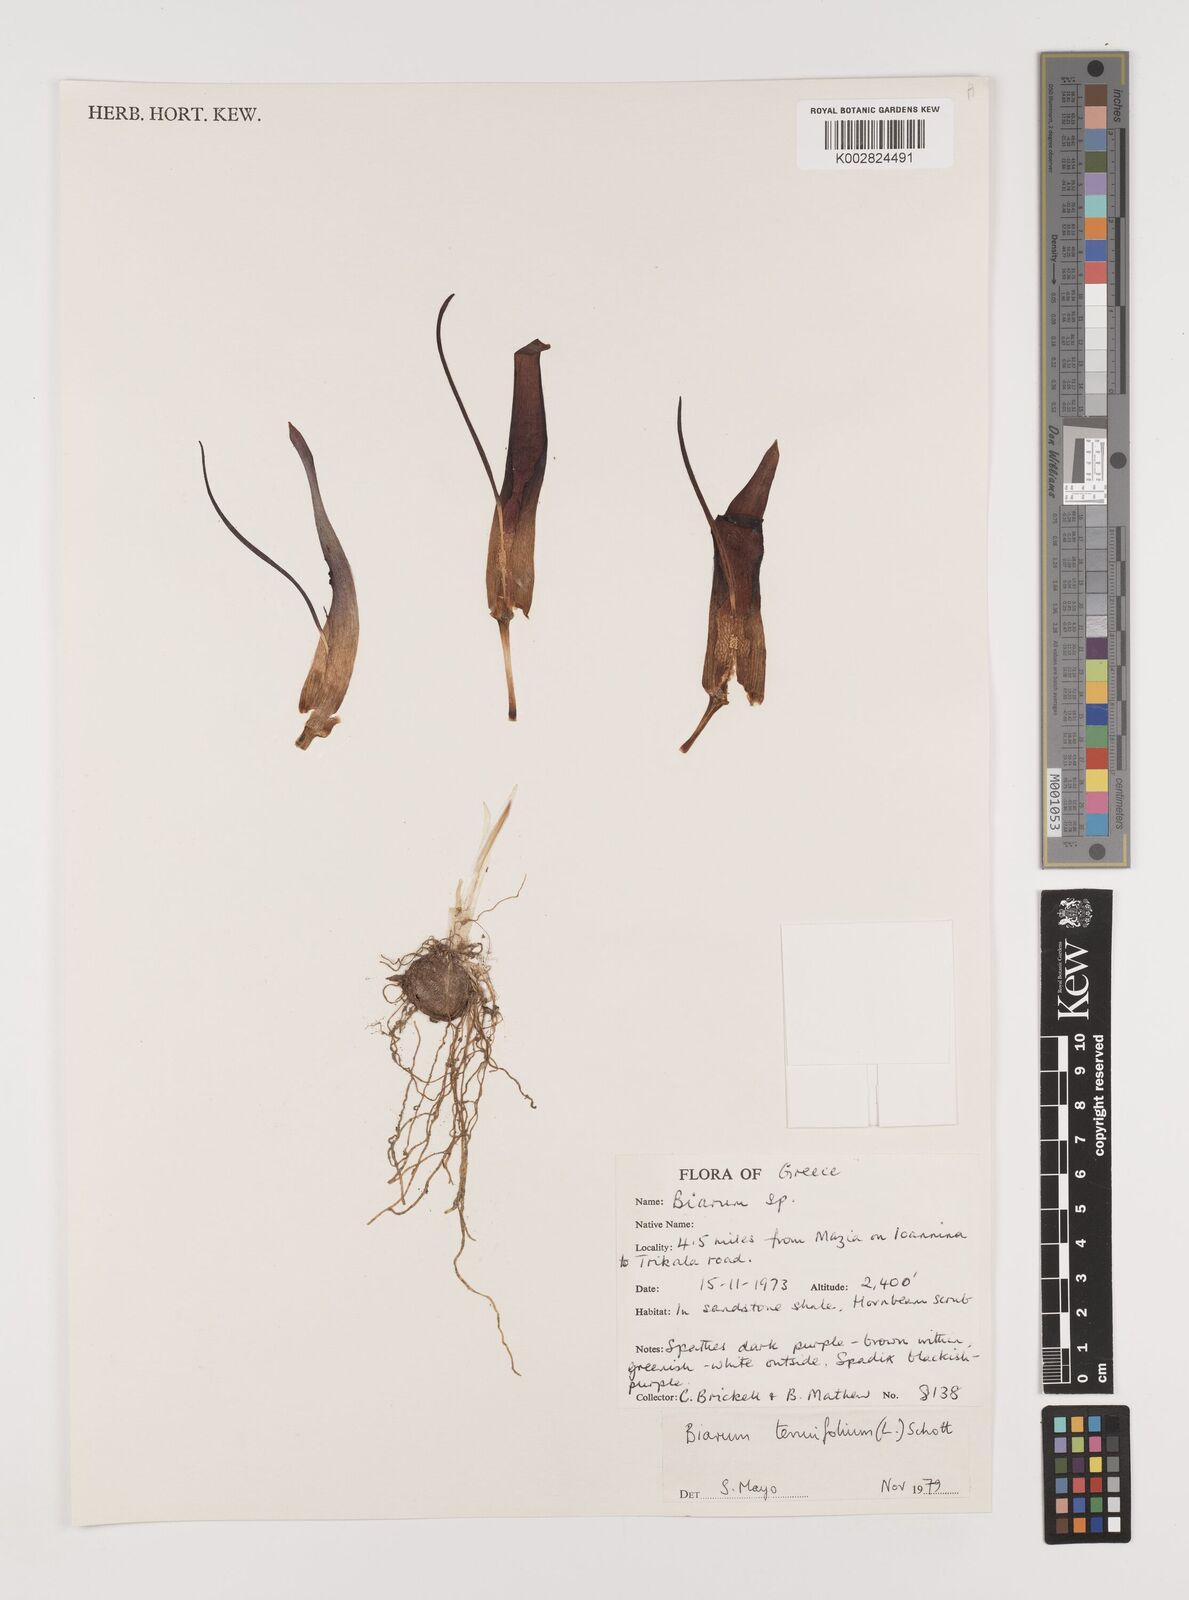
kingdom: Plantae
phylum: Tracheophyta
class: Liliopsida
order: Alismatales
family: Araceae
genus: Biarum
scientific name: Biarum tenuifolium
